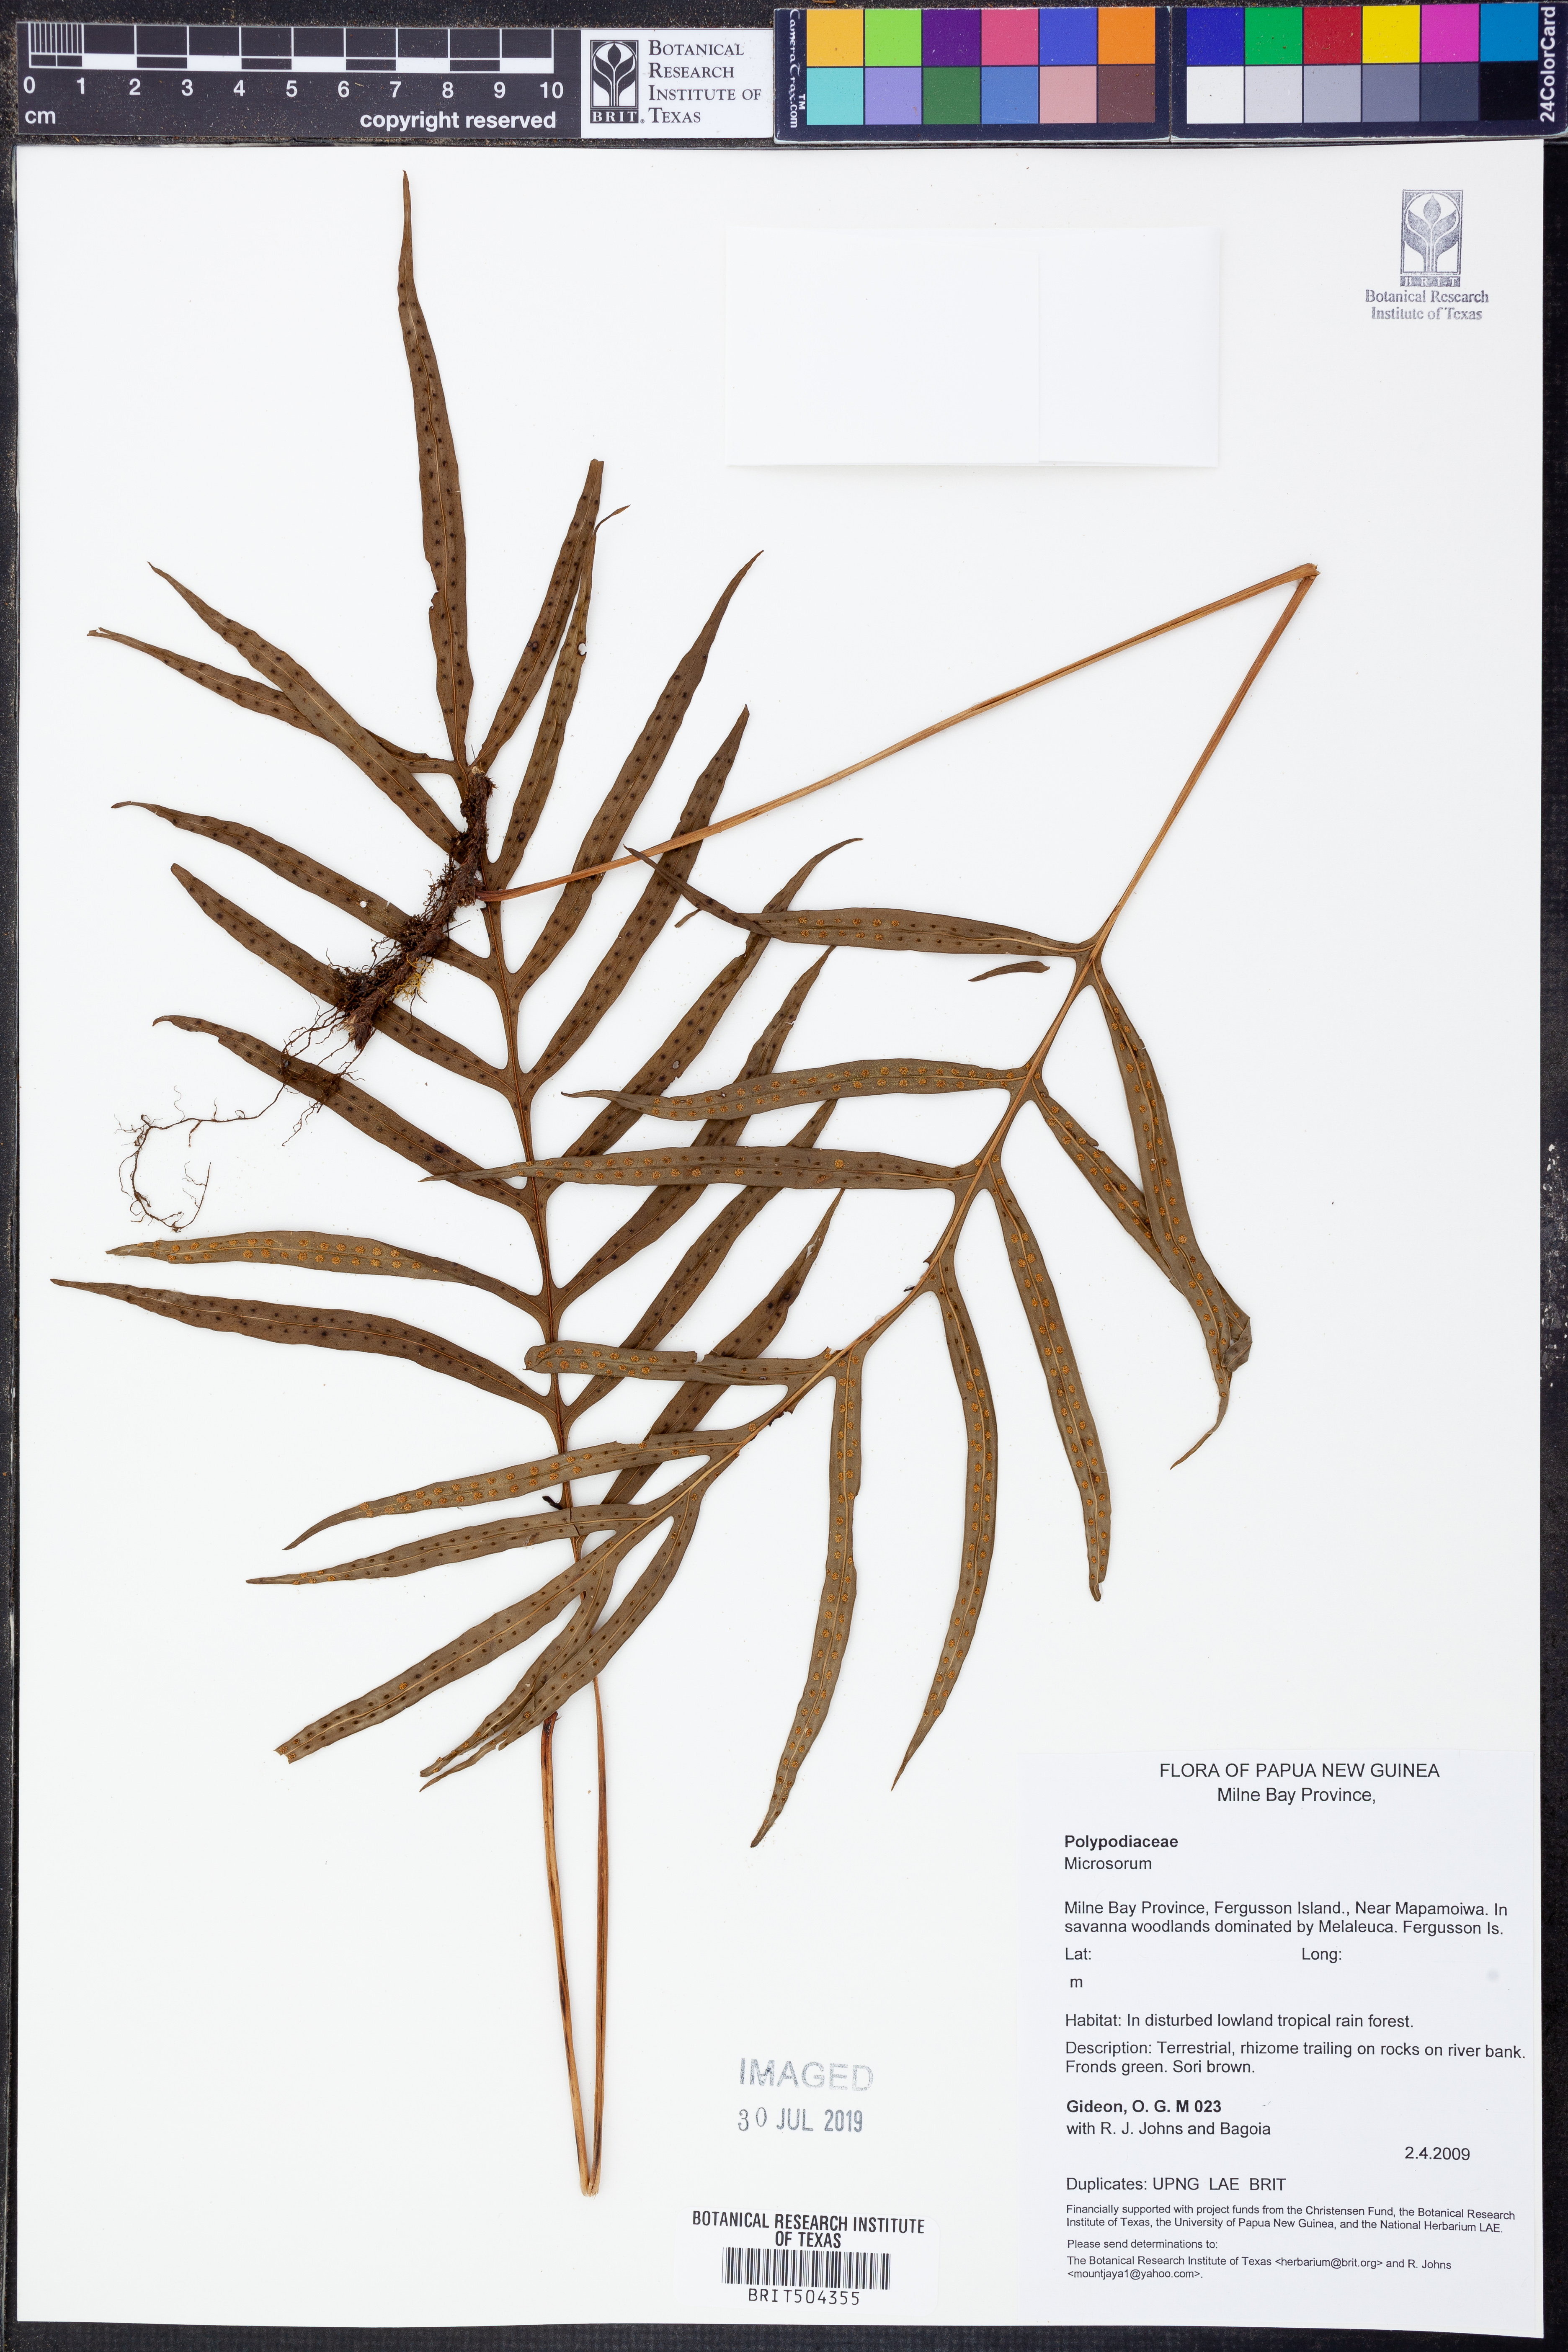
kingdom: Plantae
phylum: Tracheophyta
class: Polypodiopsida
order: Polypodiales
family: Polypodiaceae
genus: Microsorum
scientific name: Microsorum
